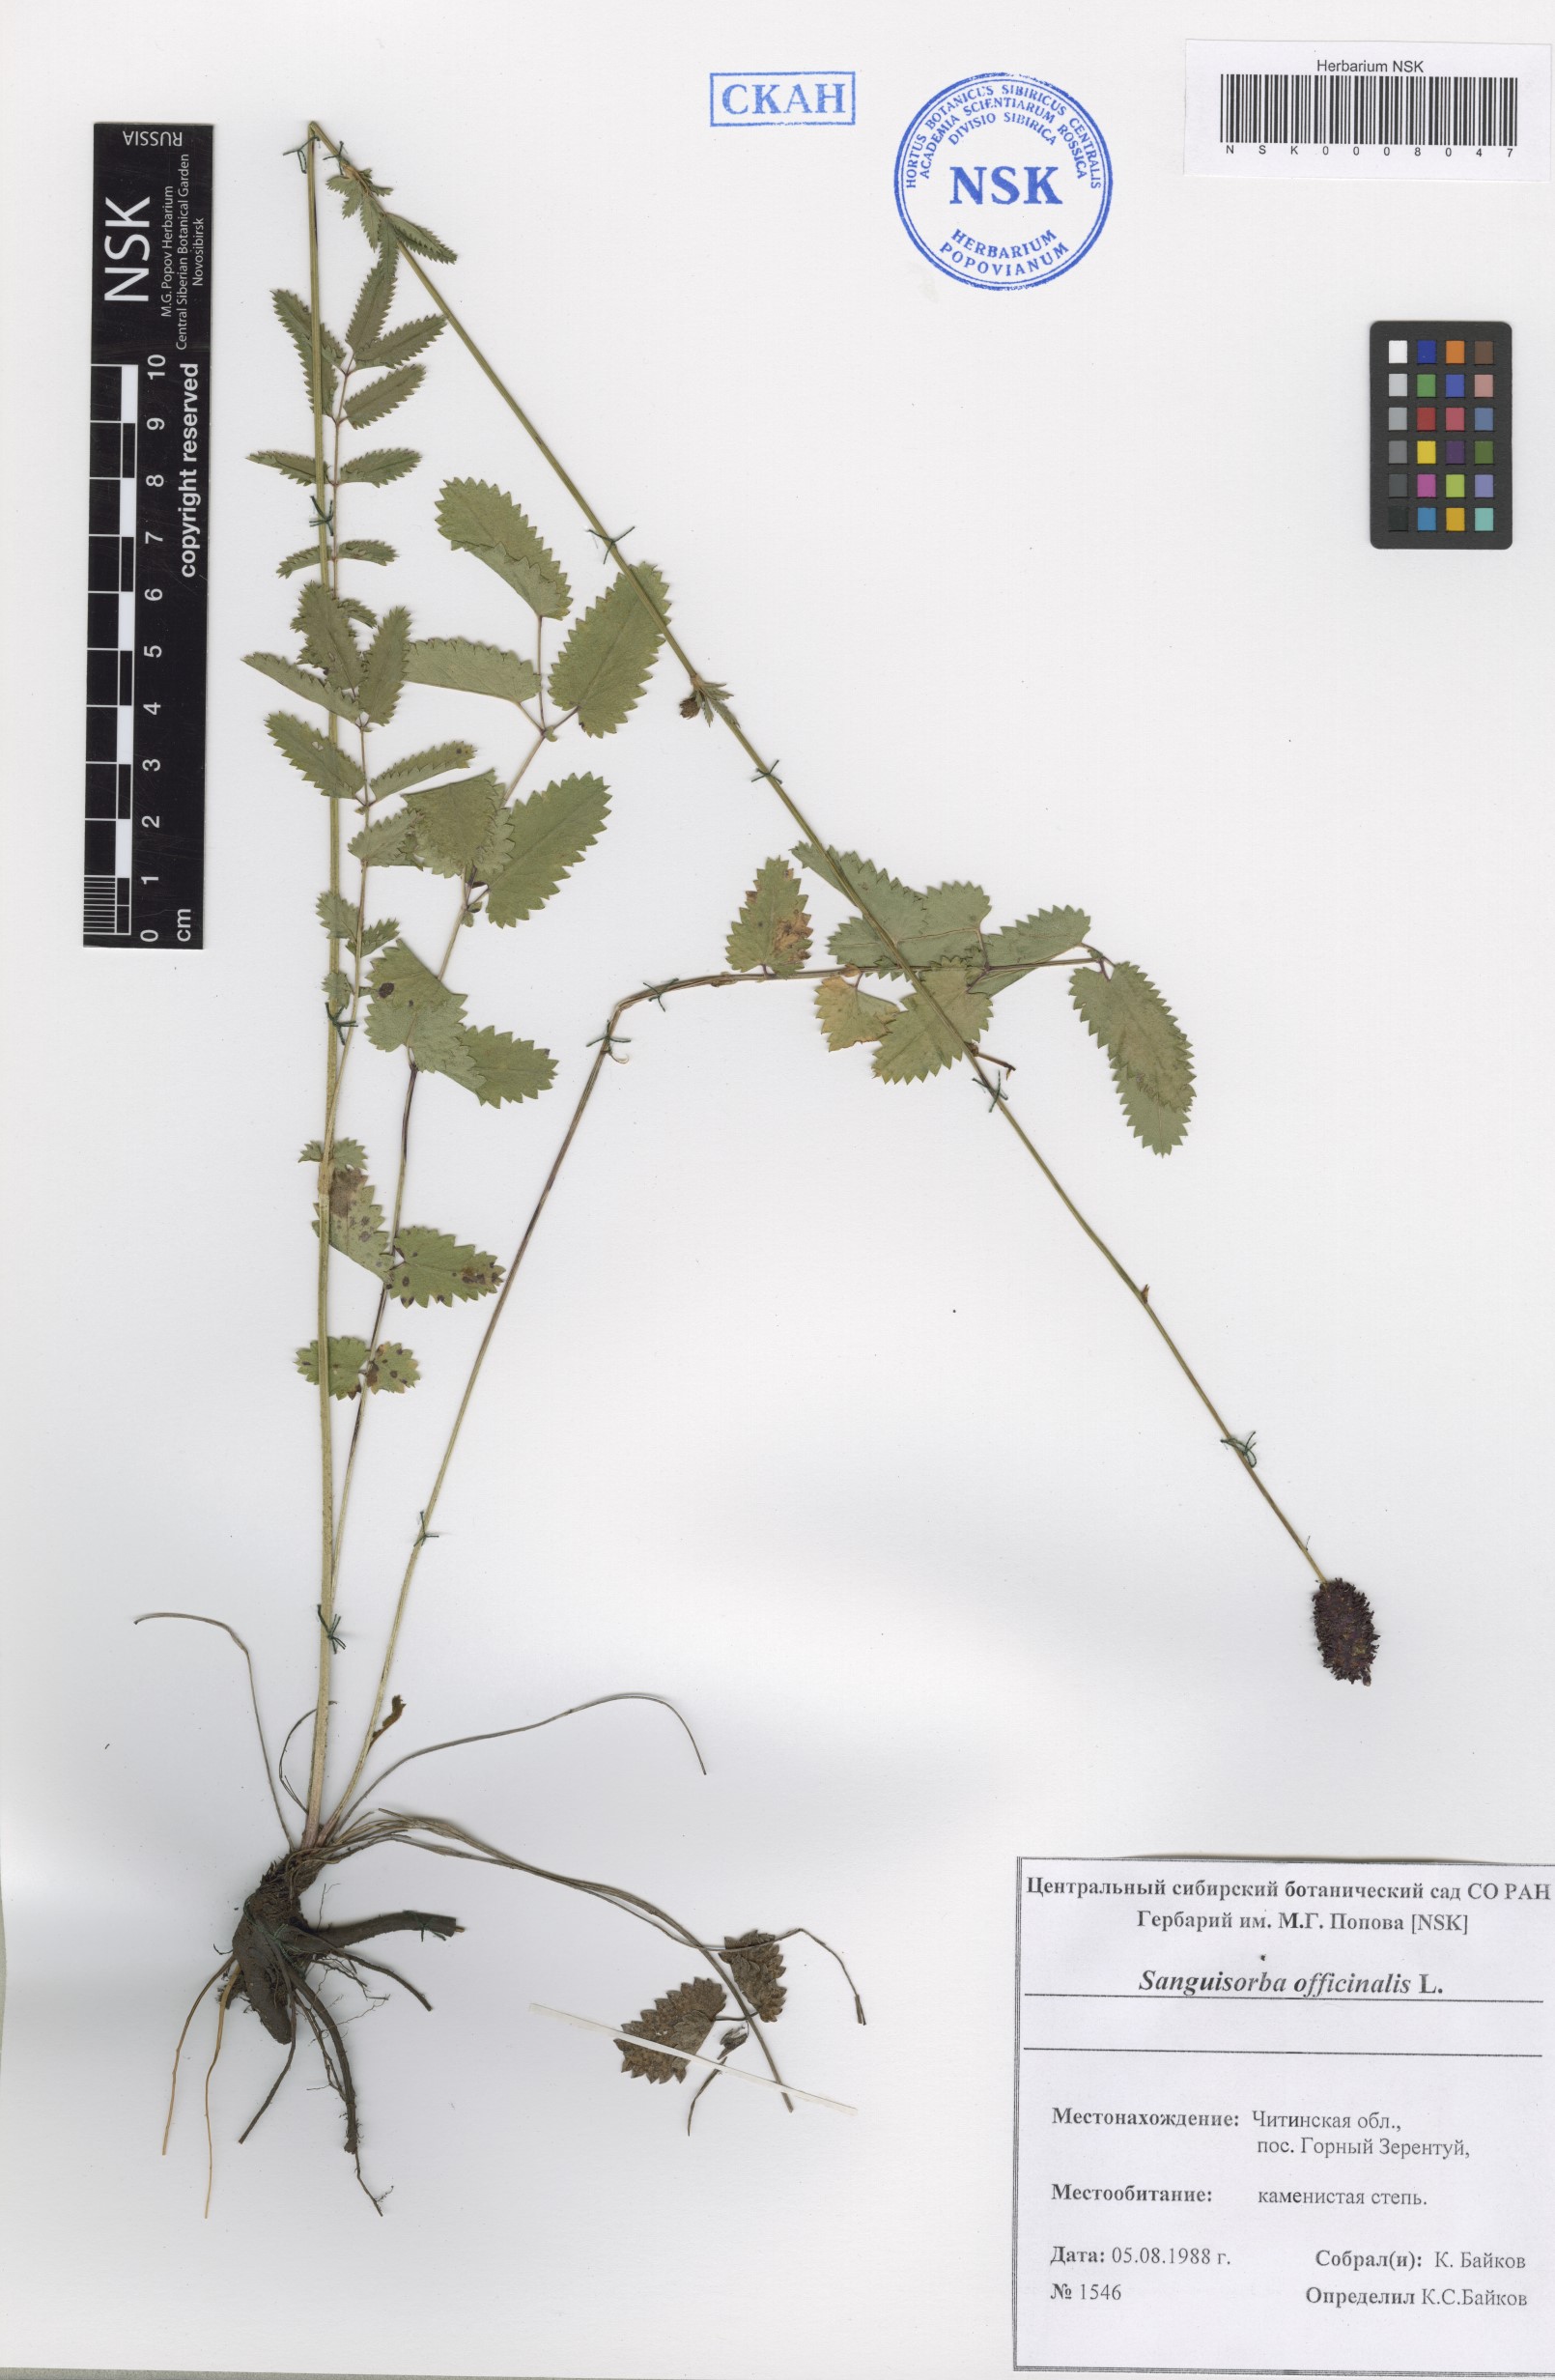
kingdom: Plantae
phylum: Tracheophyta
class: Magnoliopsida
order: Rosales
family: Rosaceae
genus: Sanguisorba
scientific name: Sanguisorba officinalis
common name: Great burnet
